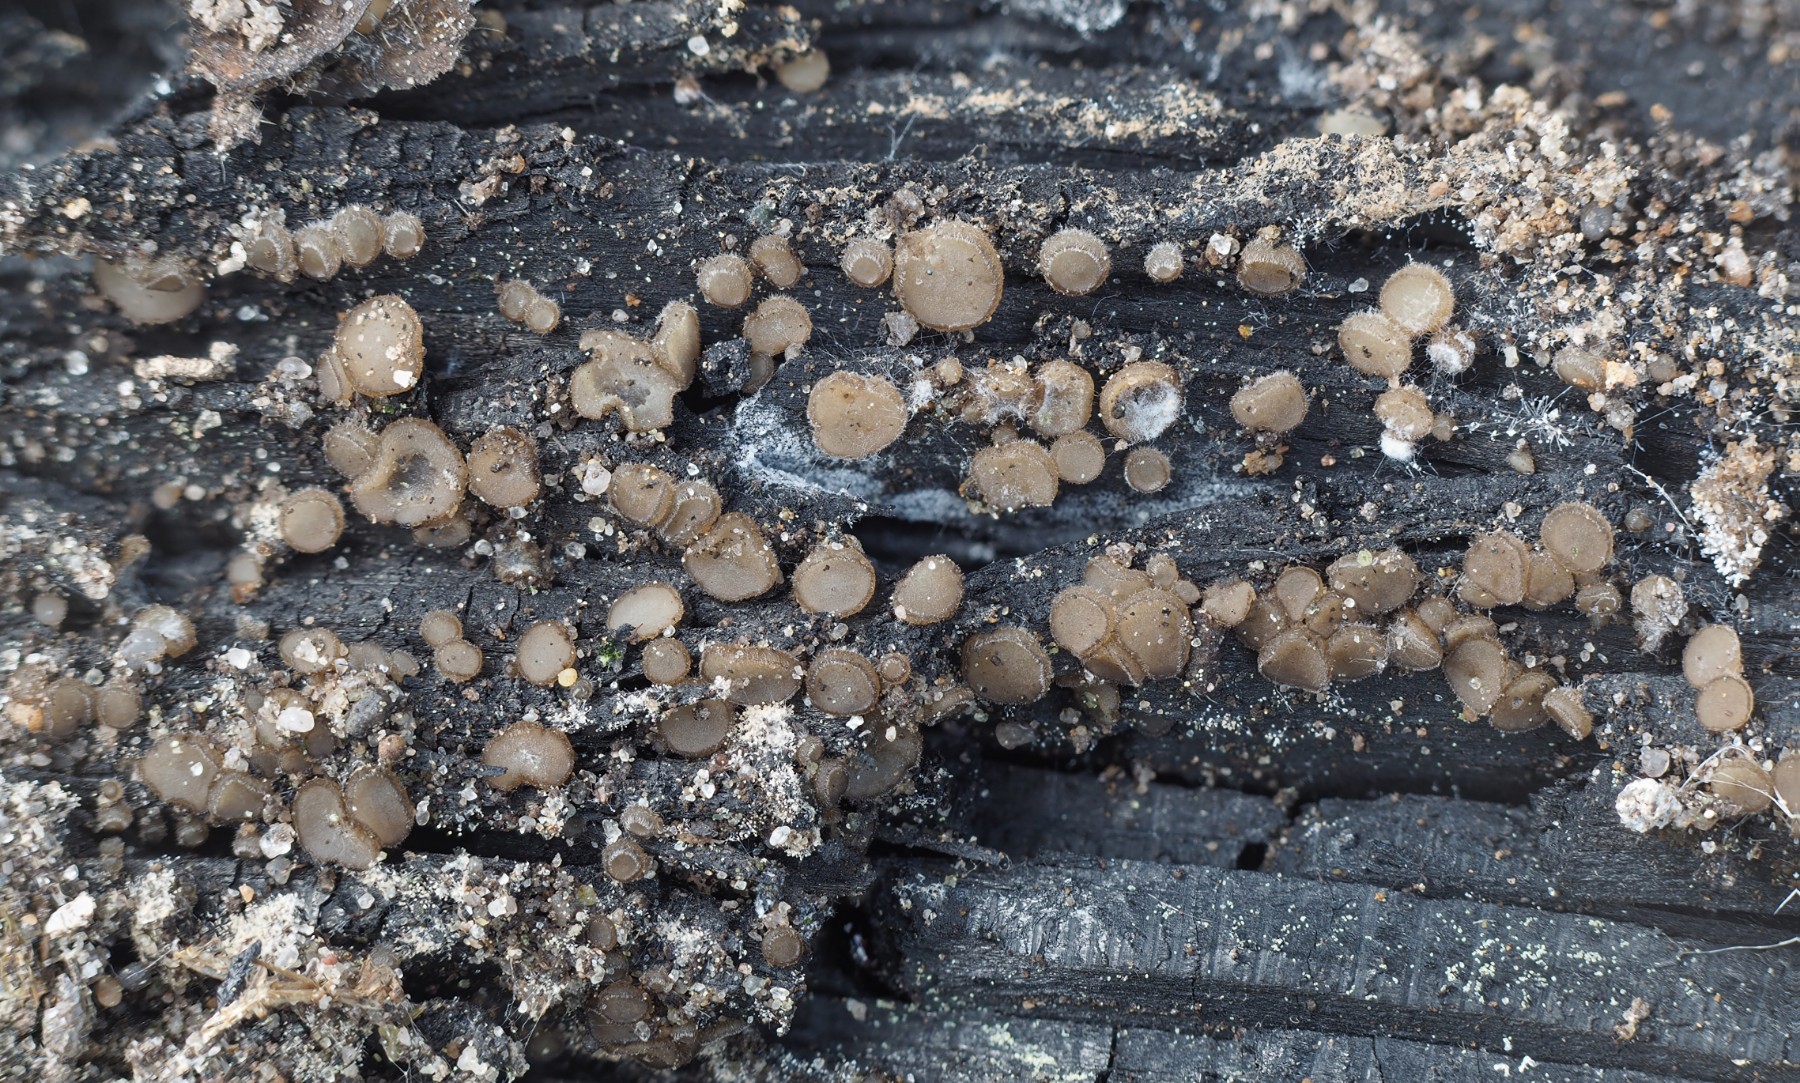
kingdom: Fungi
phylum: Ascomycota
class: Pezizomycetes
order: Pezizales
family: Pyronemataceae
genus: Trichophaea
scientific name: Trichophaea abundans
